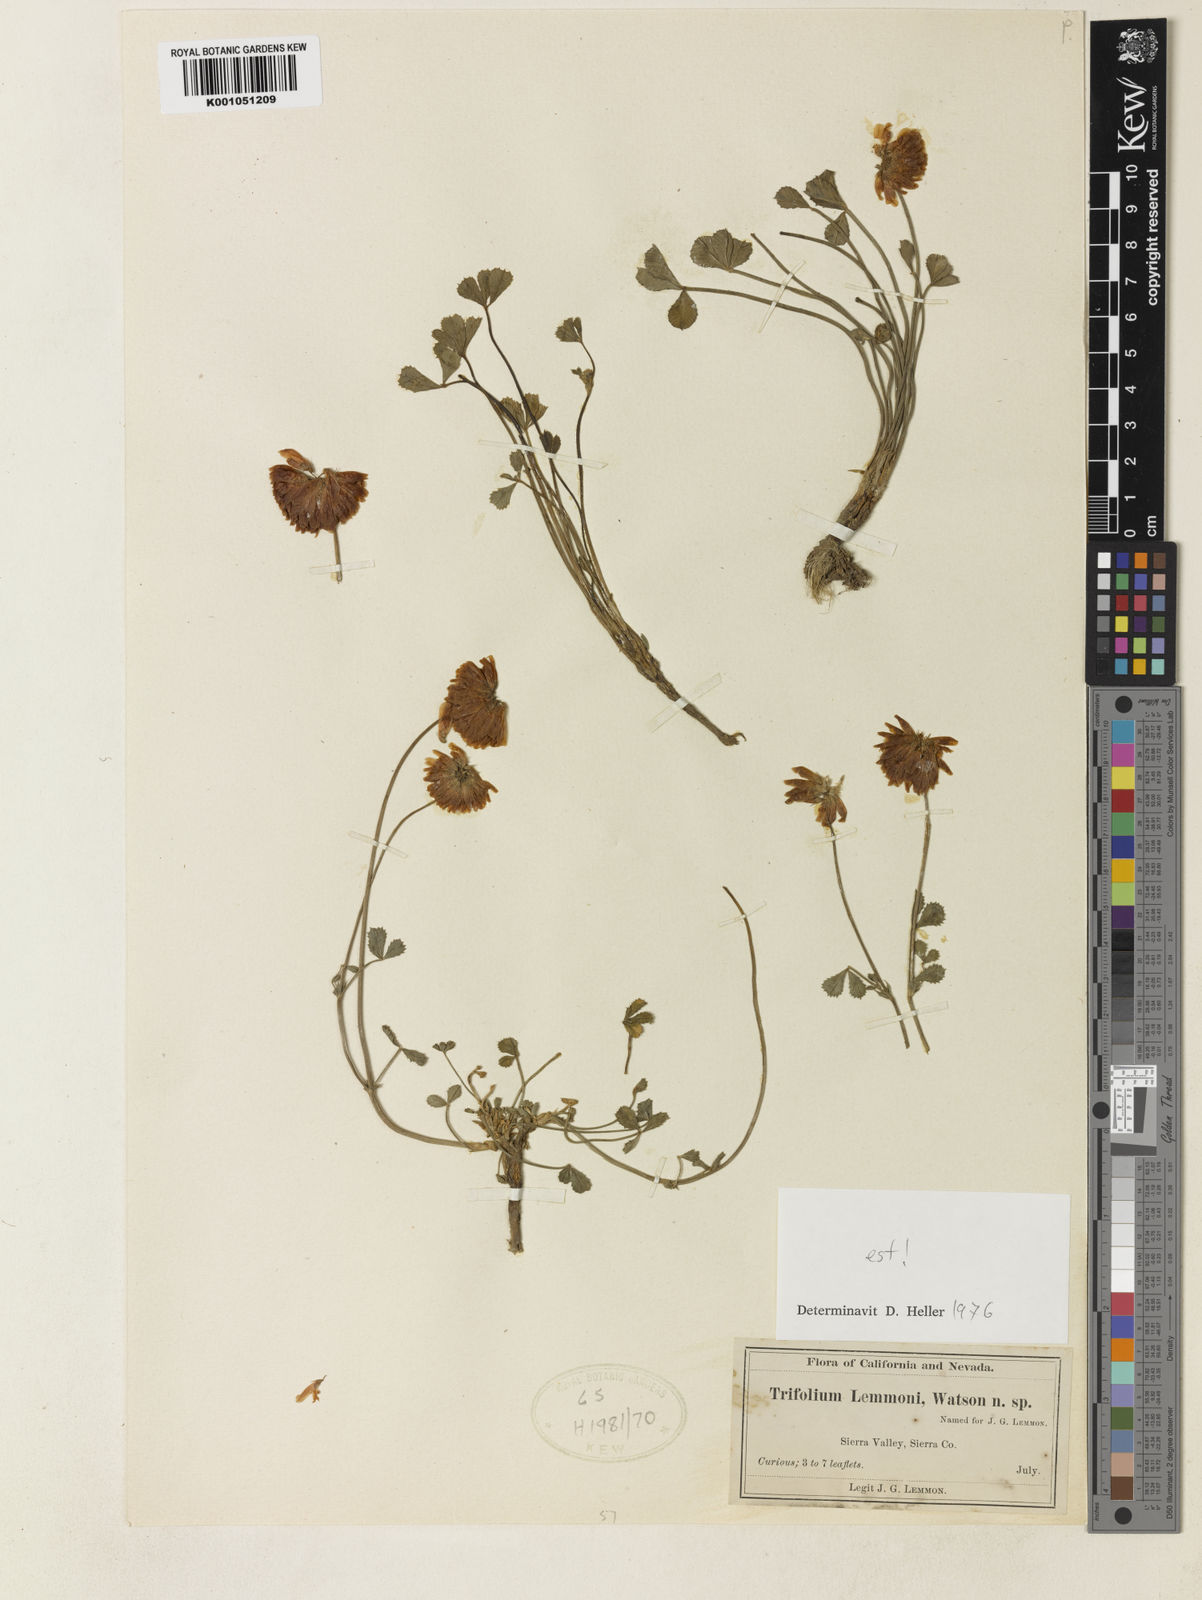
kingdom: Plantae
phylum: Tracheophyta
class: Magnoliopsida
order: Fabales
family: Fabaceae
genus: Trifolium
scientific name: Trifolium lemmonii
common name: Lemmon's clover
